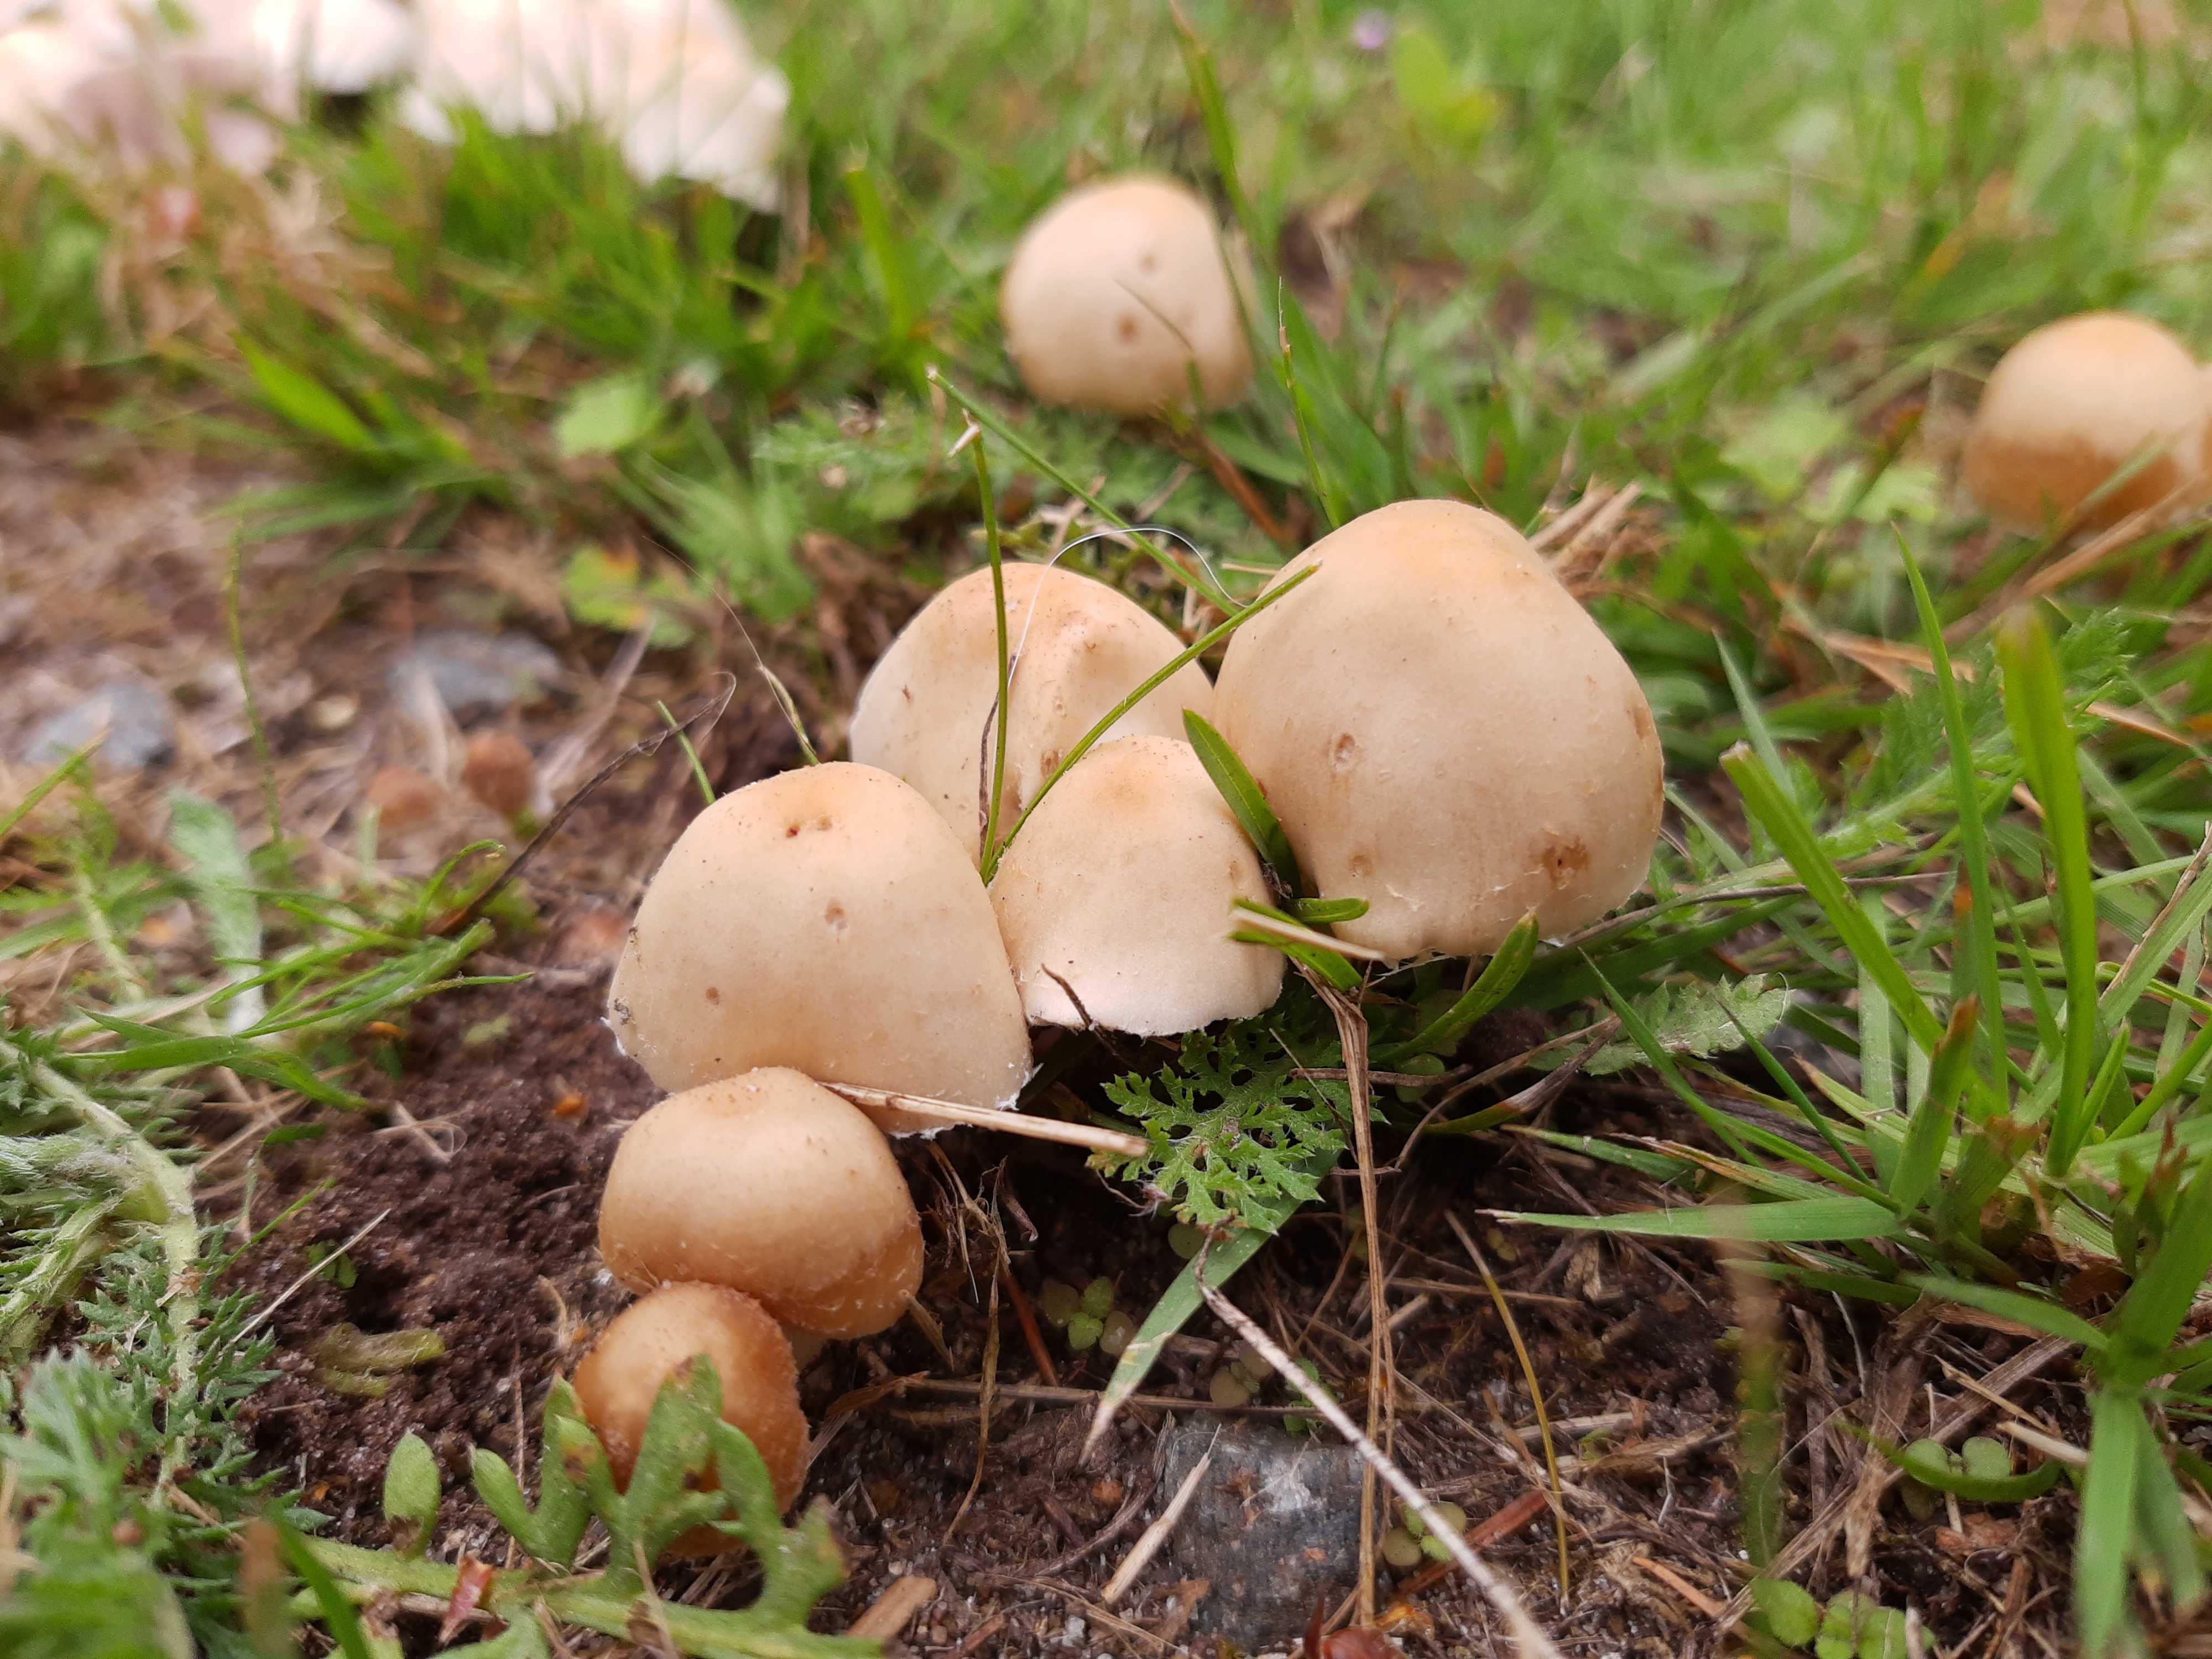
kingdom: Fungi
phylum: Basidiomycota
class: Agaricomycetes
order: Agaricales
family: Psathyrellaceae
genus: Candolleomyces
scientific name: Candolleomyces candolleanus
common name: Candolles mørkhat
